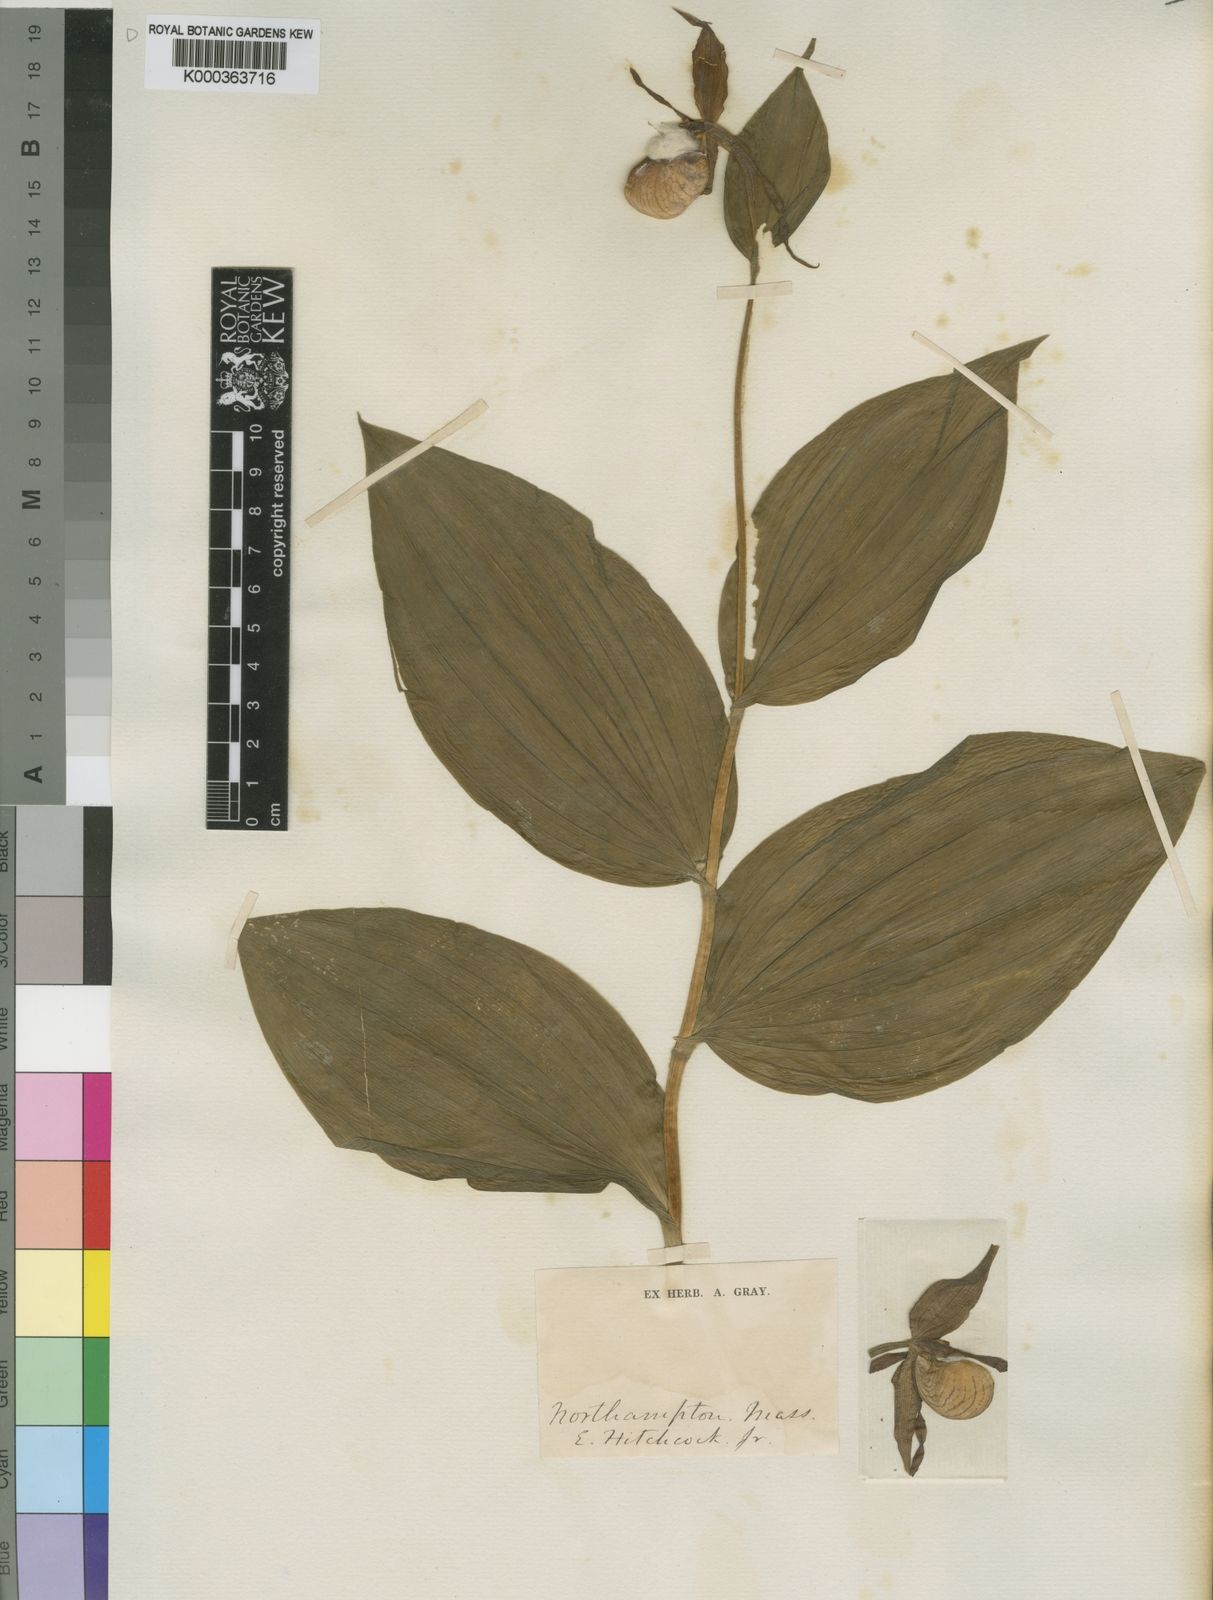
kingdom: Plantae
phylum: Tracheophyta
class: Liliopsida
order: Asparagales
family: Orchidaceae
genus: Cypripedium
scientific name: Cypripedium
